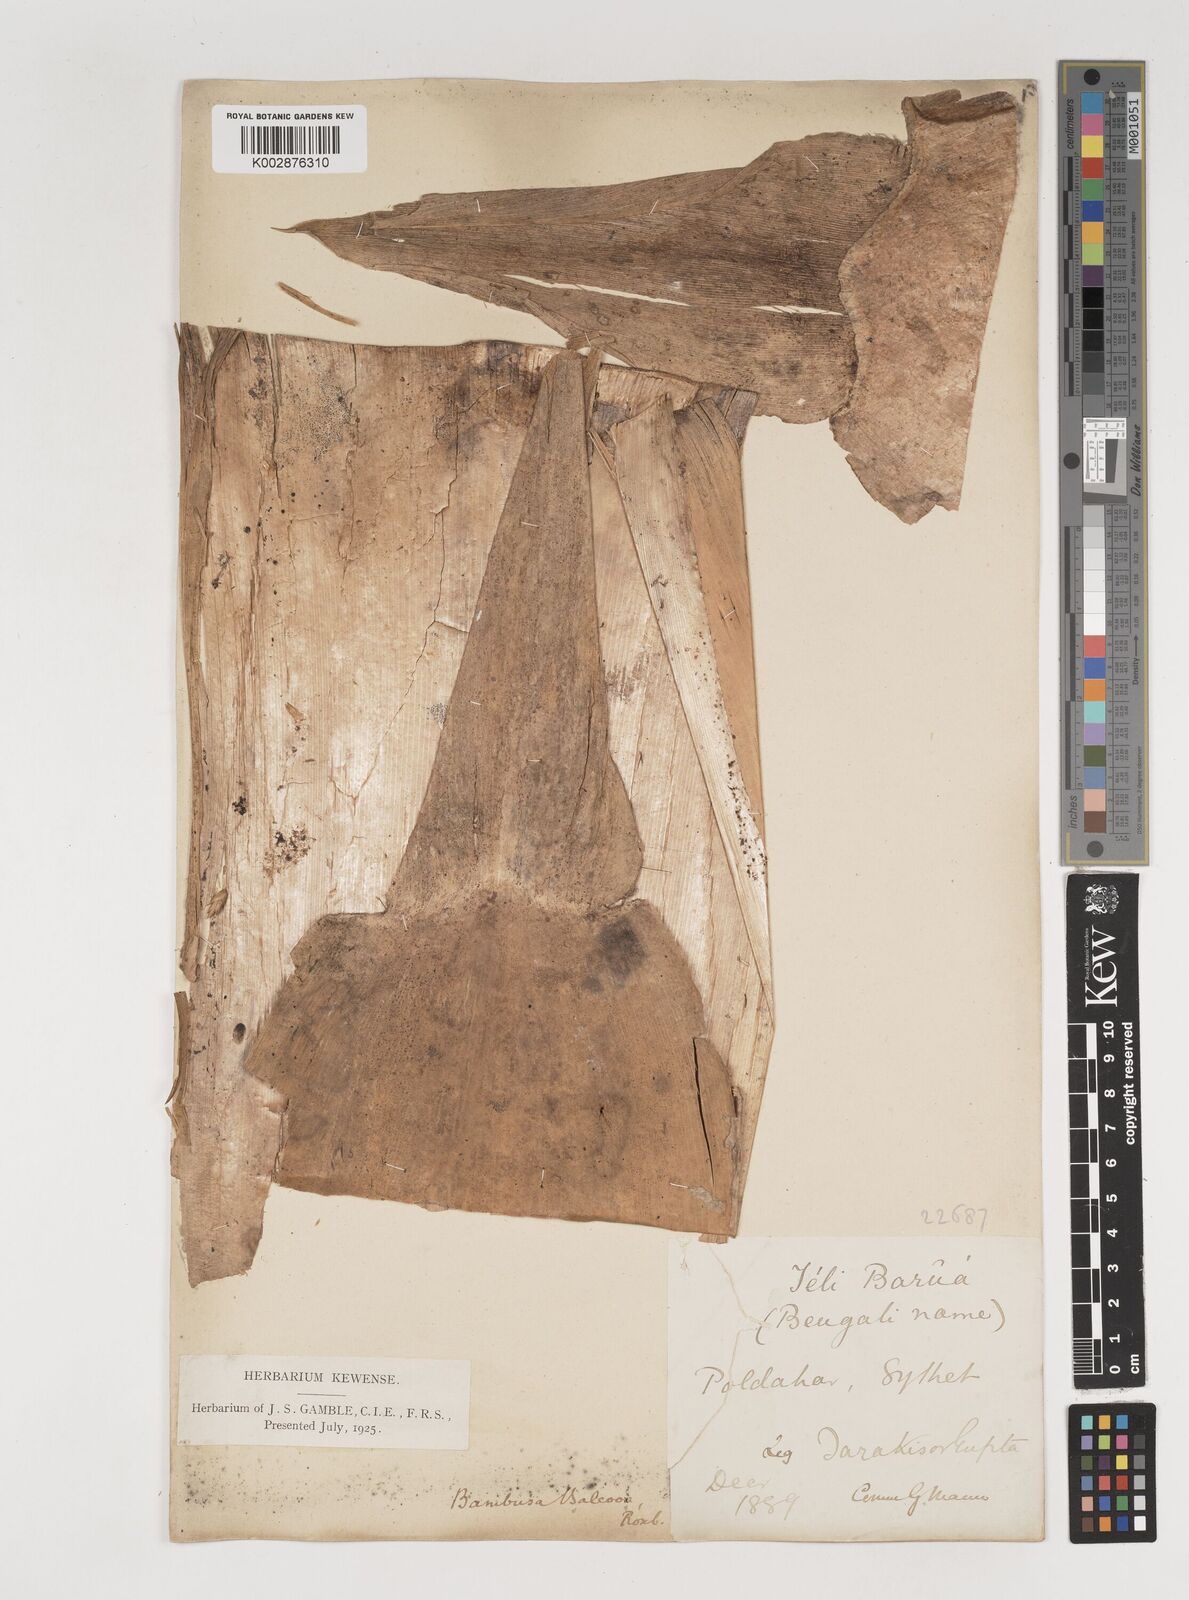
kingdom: Plantae
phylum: Tracheophyta
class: Liliopsida
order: Poales
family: Poaceae
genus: Bambusa
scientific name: Bambusa balcooa
